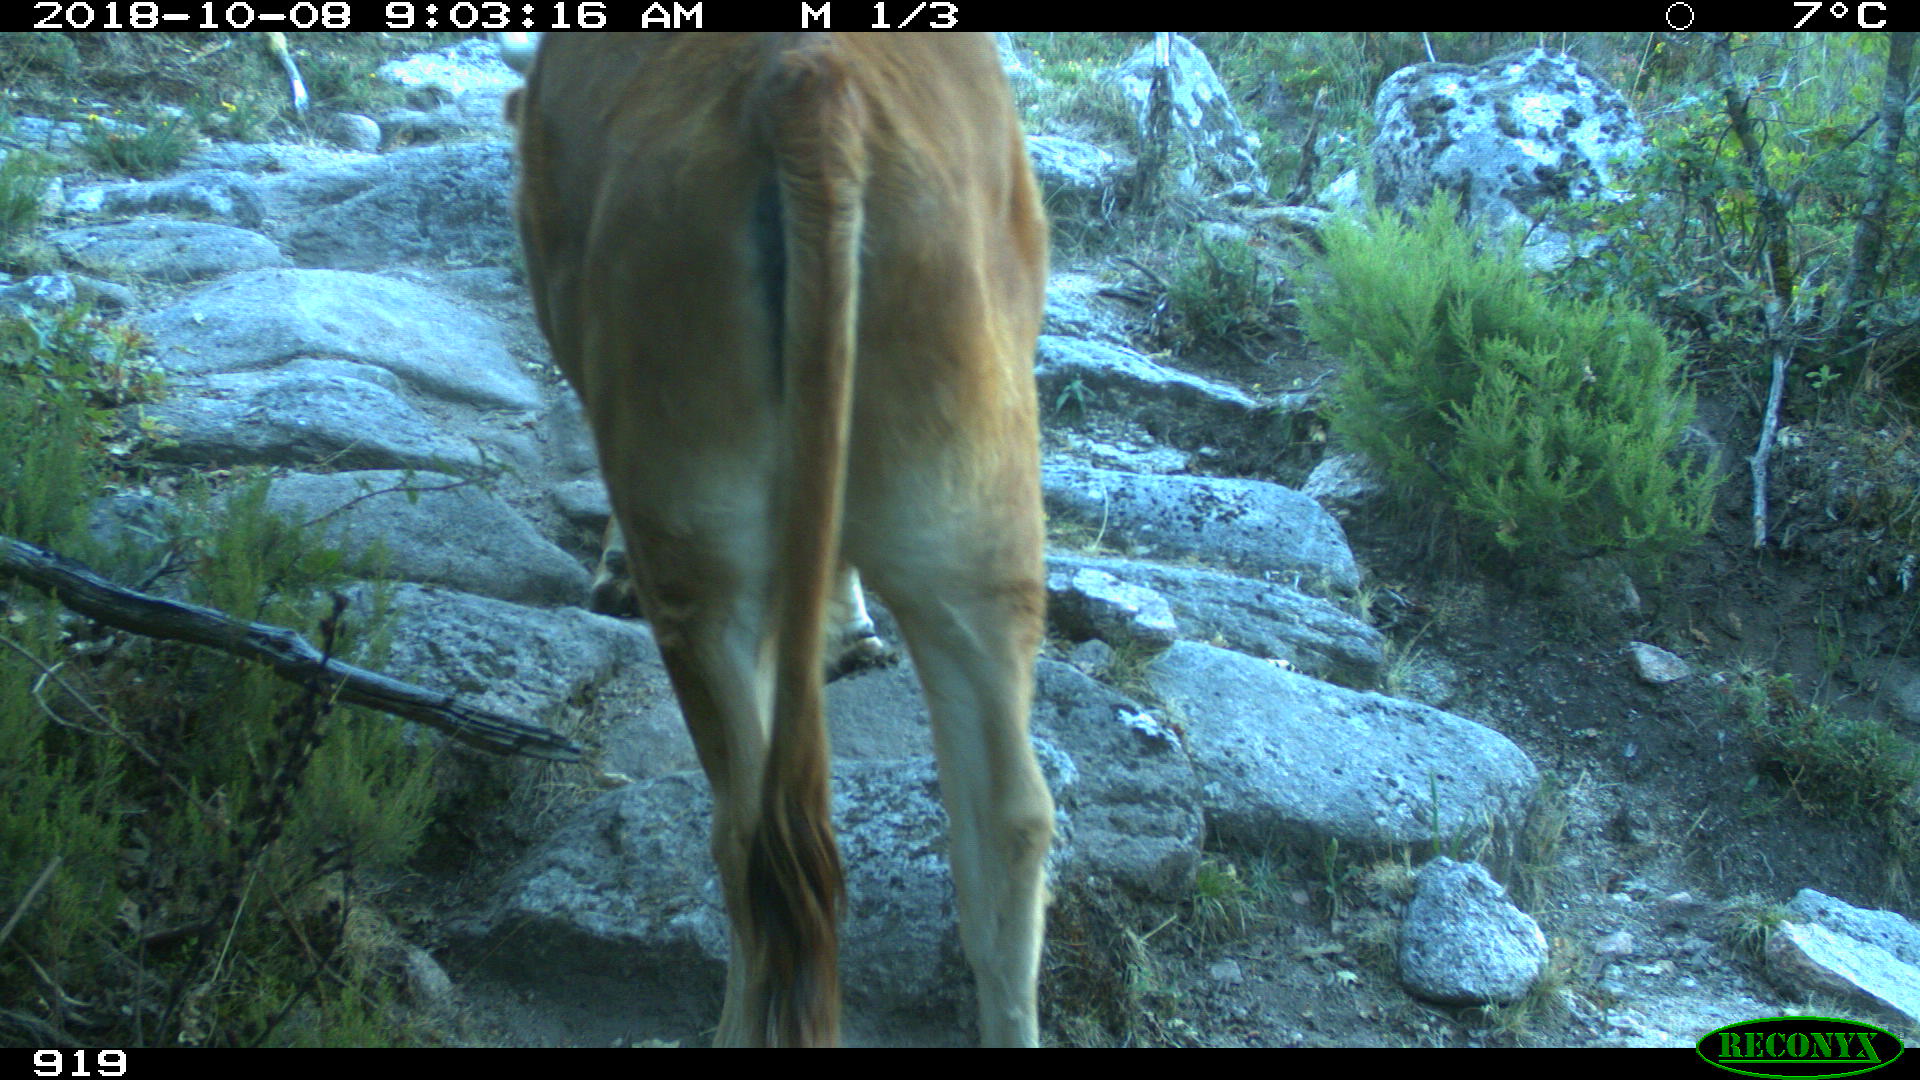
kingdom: Animalia
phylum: Chordata
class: Mammalia
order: Artiodactyla
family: Bovidae
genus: Bos
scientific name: Bos taurus
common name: Domesticated cattle
